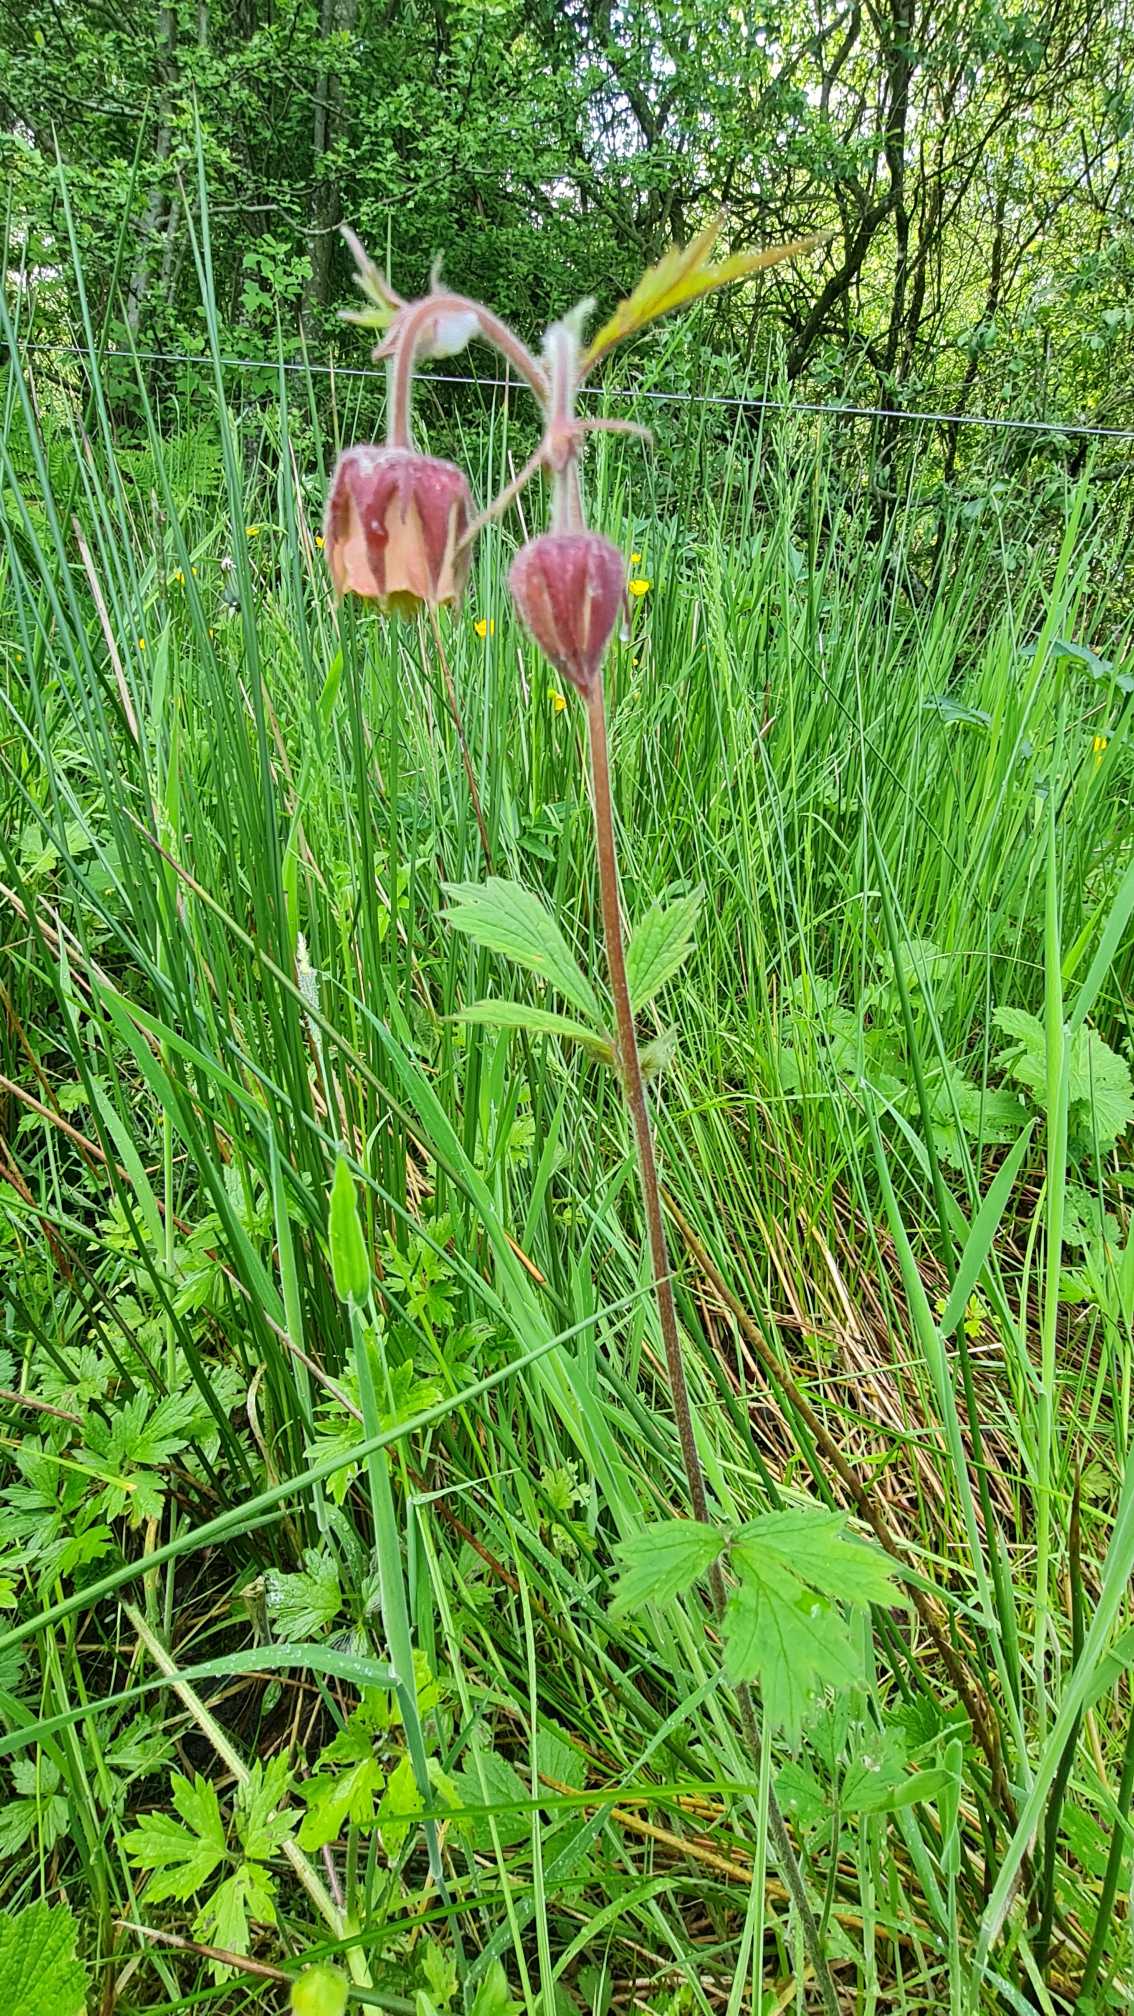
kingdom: Plantae
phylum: Tracheophyta
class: Magnoliopsida
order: Rosales
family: Rosaceae
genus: Geum
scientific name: Geum rivale
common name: Eng-nellikerod
